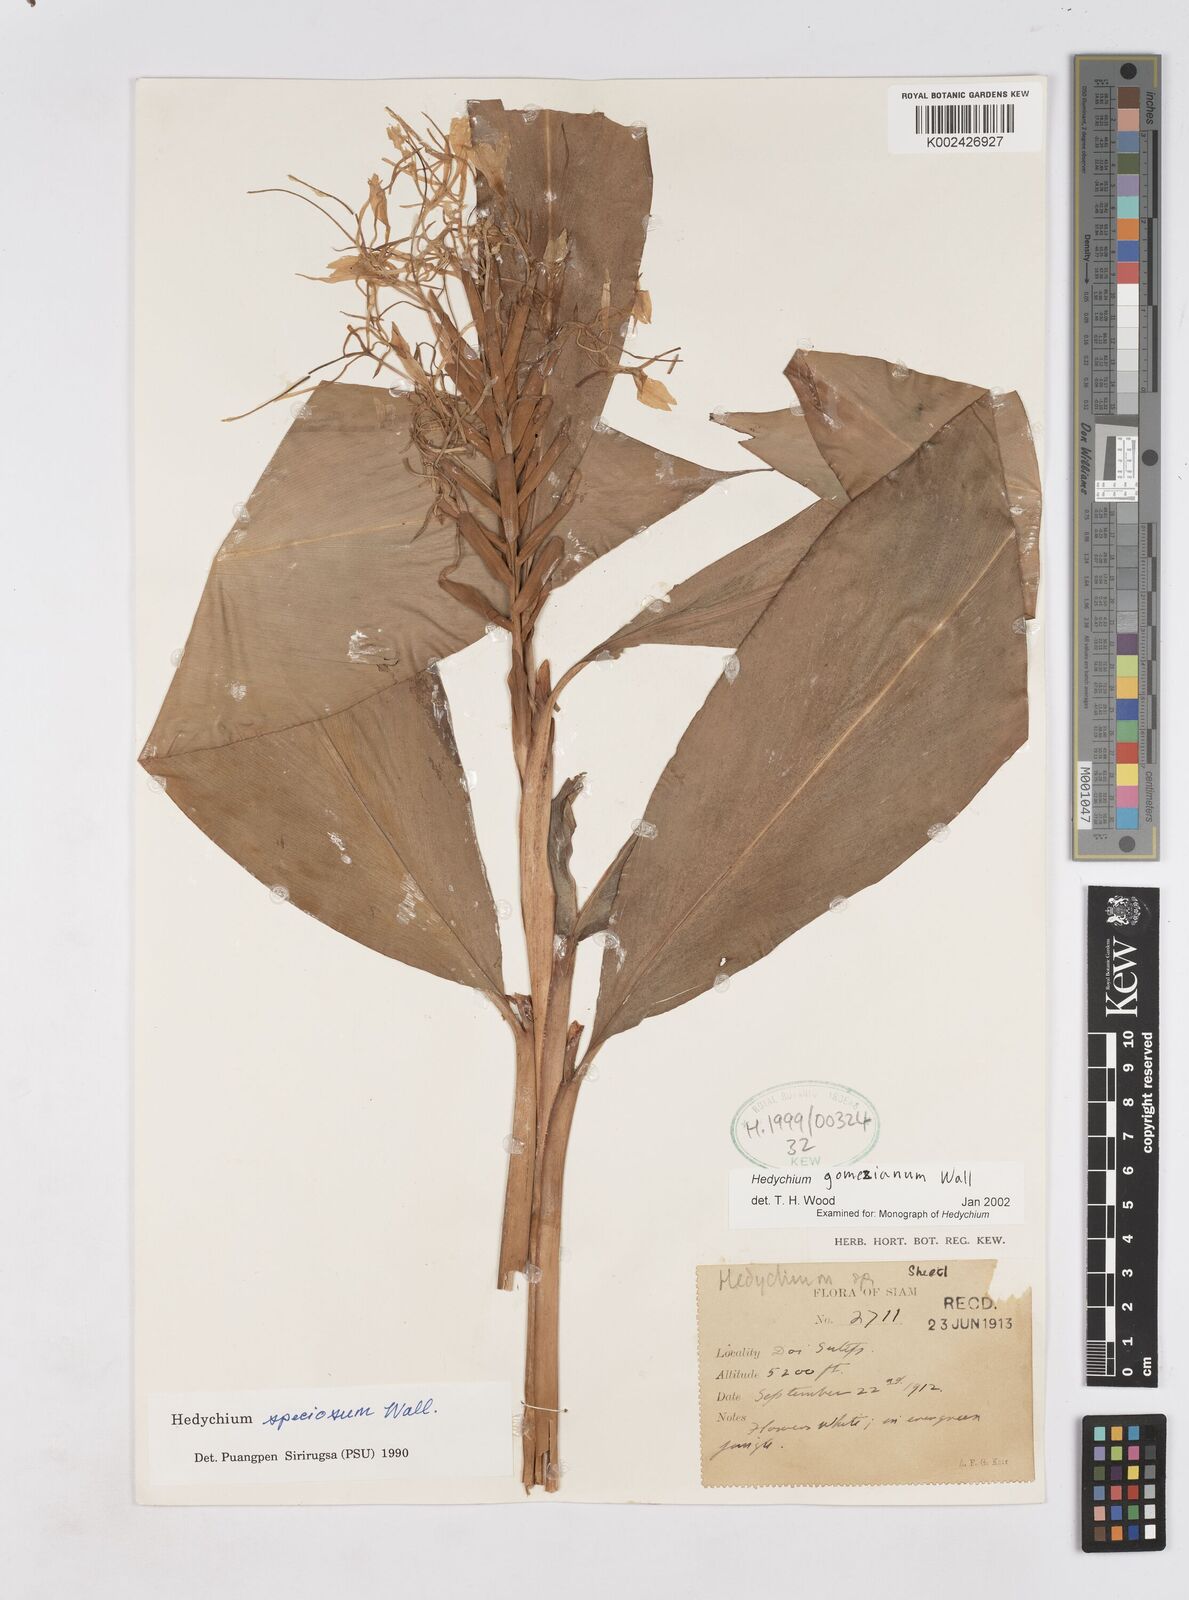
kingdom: Plantae
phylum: Tracheophyta
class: Liliopsida
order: Zingiberales
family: Zingiberaceae
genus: Hedychium
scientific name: Hedychium gomezianum
